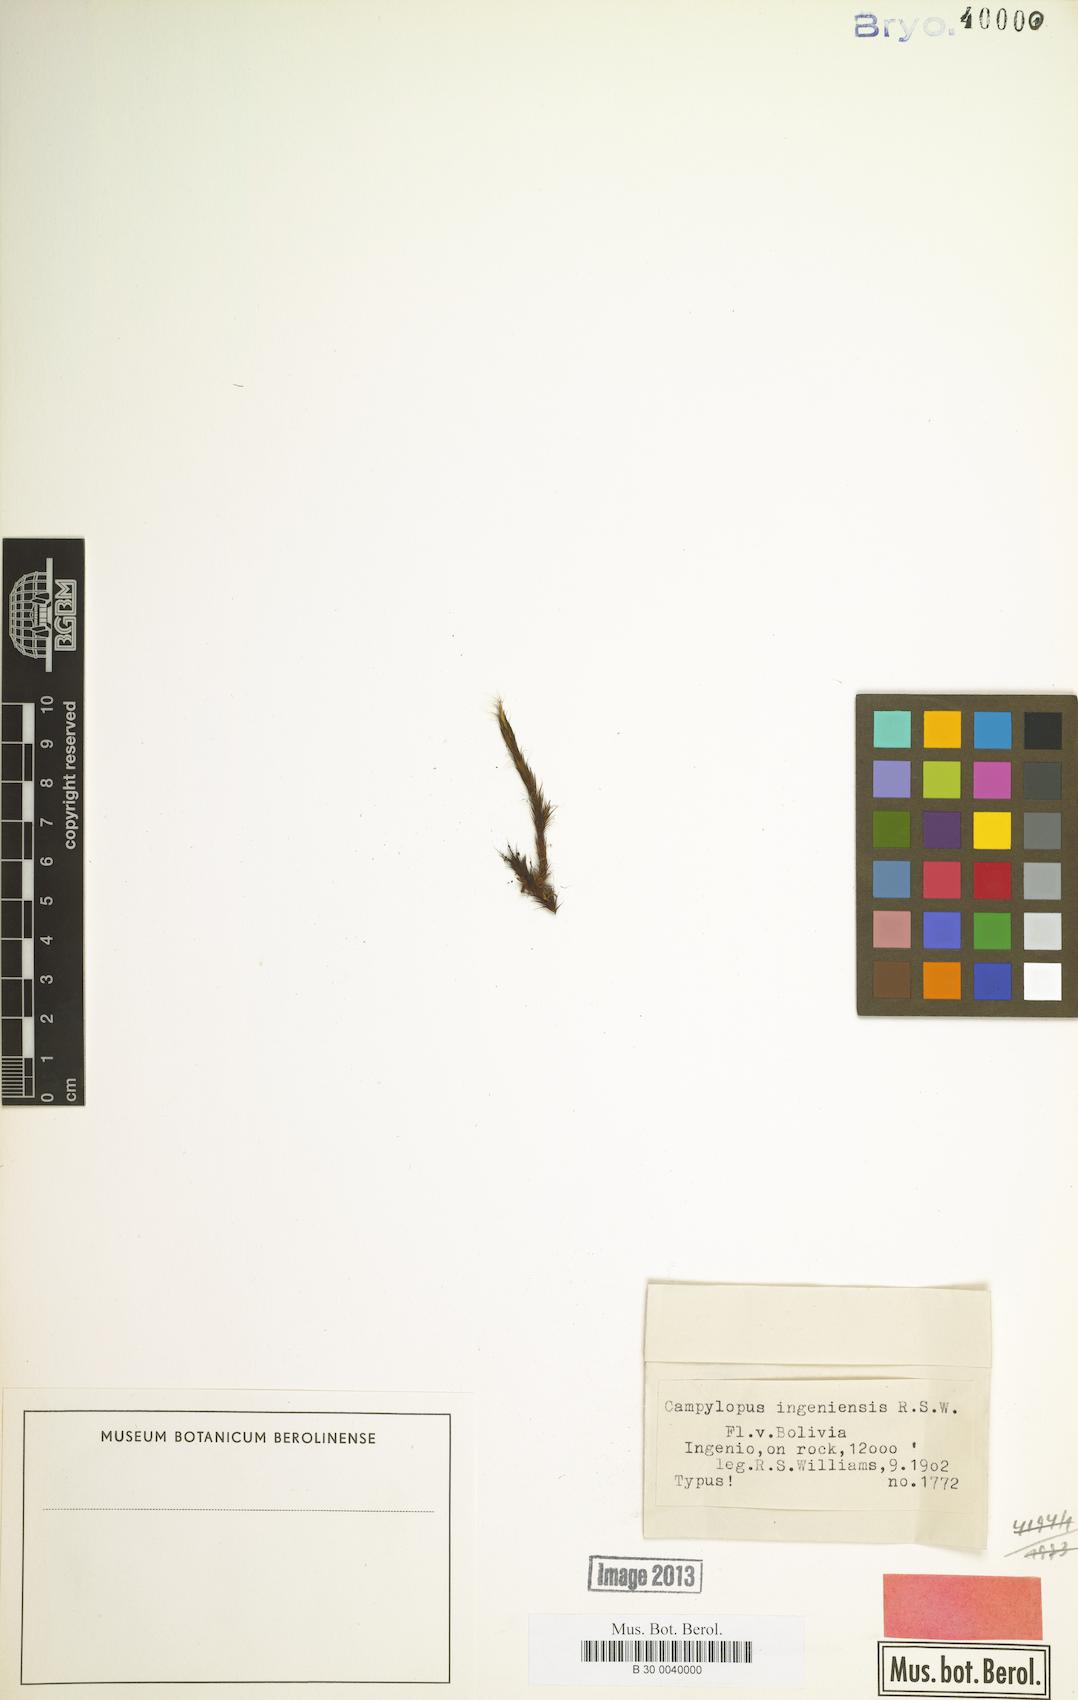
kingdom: Plantae
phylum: Bryophyta
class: Bryopsida
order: Dicranales
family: Leucobryaceae
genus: Campylopus
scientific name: Campylopus griseus
